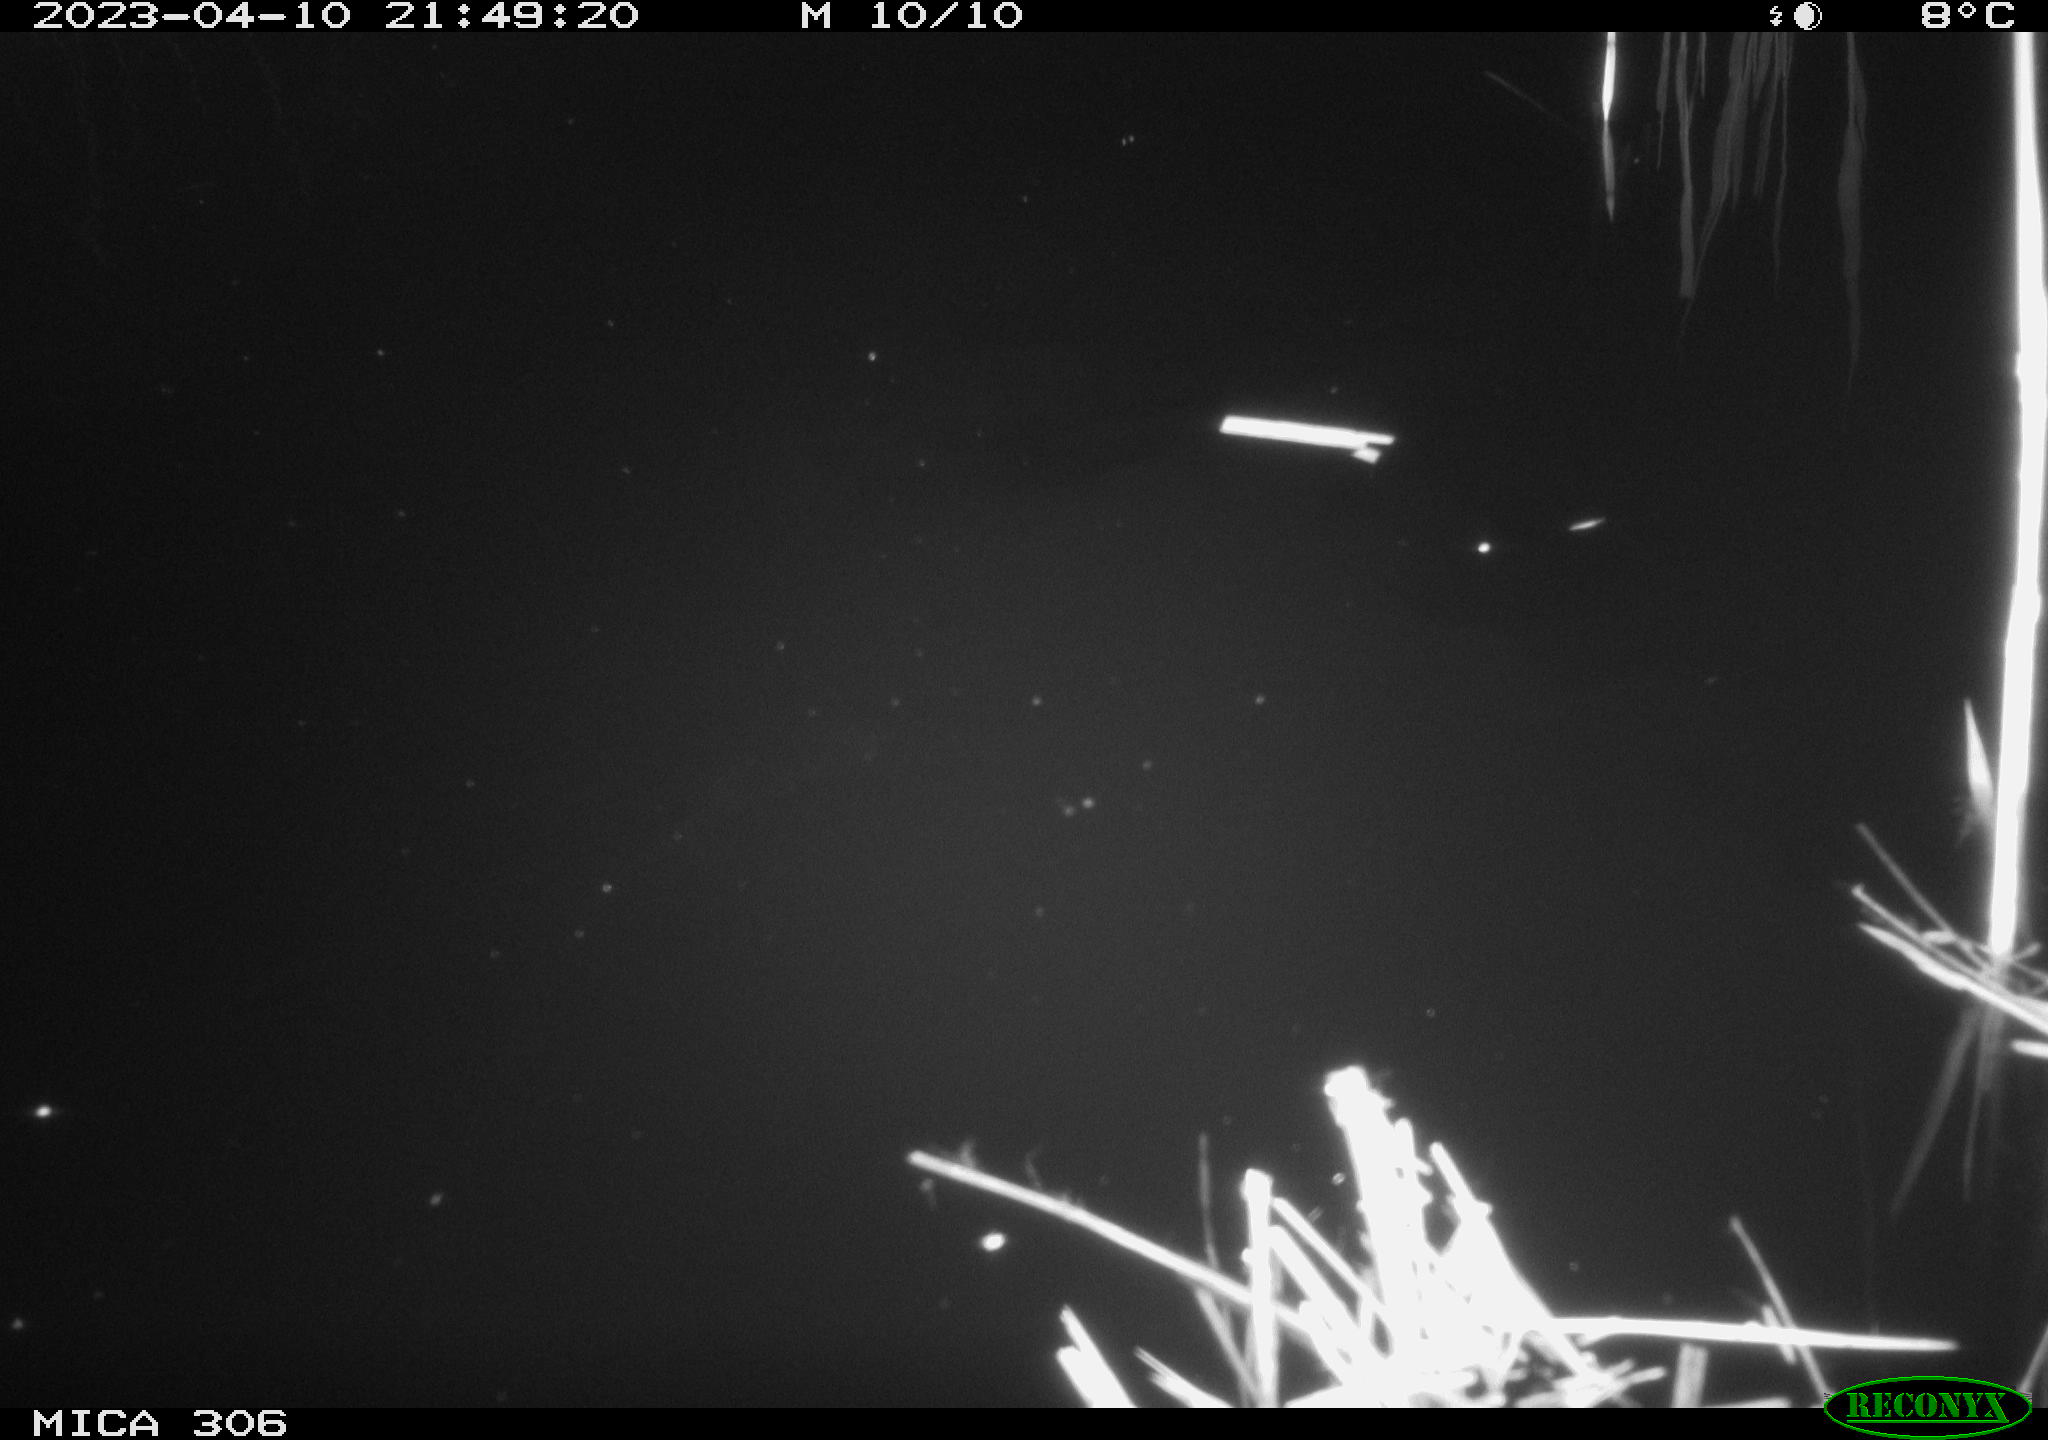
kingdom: Animalia
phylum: Chordata
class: Aves
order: Anseriformes
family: Anatidae
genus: Anas
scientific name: Anas
